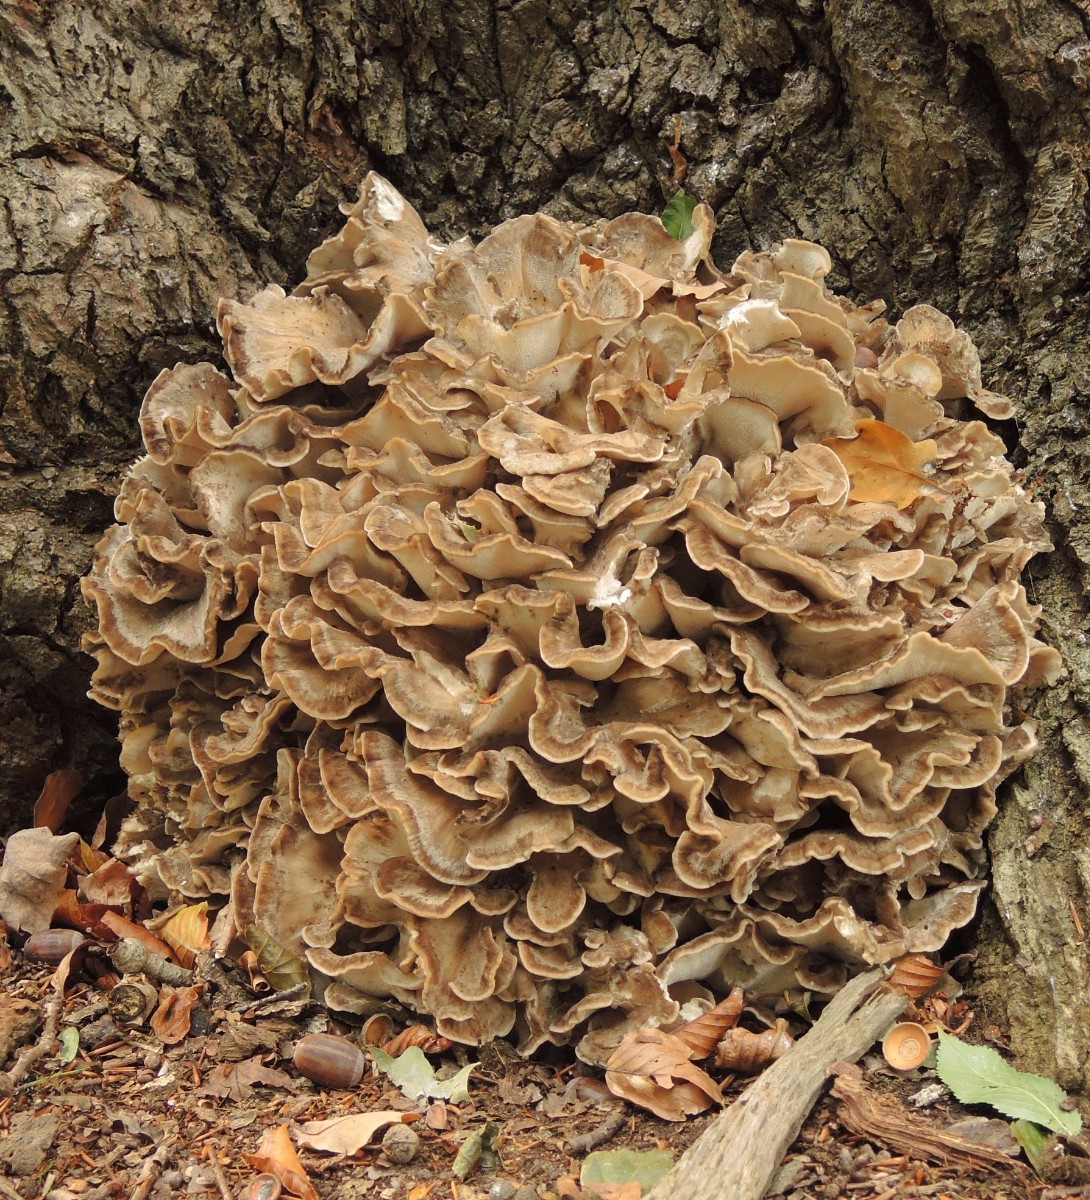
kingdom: Fungi
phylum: Basidiomycota
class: Agaricomycetes
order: Polyporales
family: Grifolaceae
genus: Grifola
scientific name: Grifola frondosa
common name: tueporesvamp
